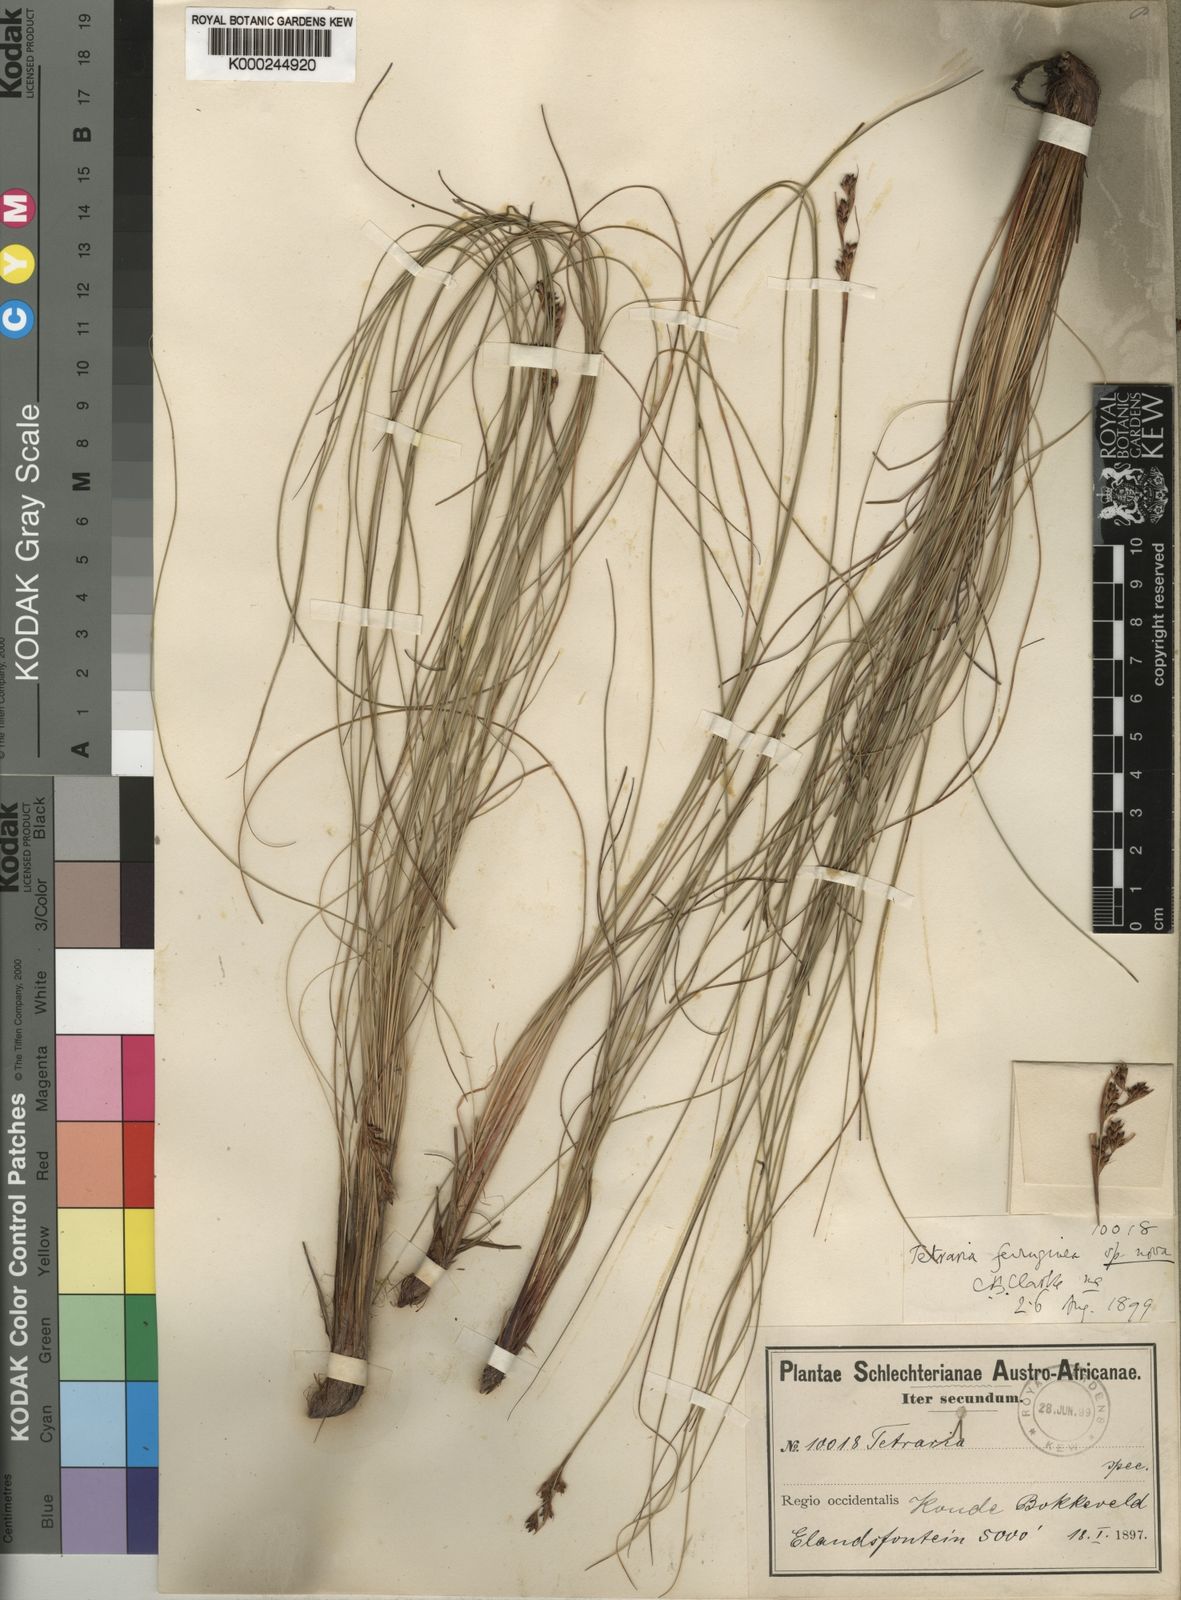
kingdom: Plantae
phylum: Tracheophyta
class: Liliopsida
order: Poales
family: Cyperaceae
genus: Tetraria
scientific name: Tetraria ferruginea
